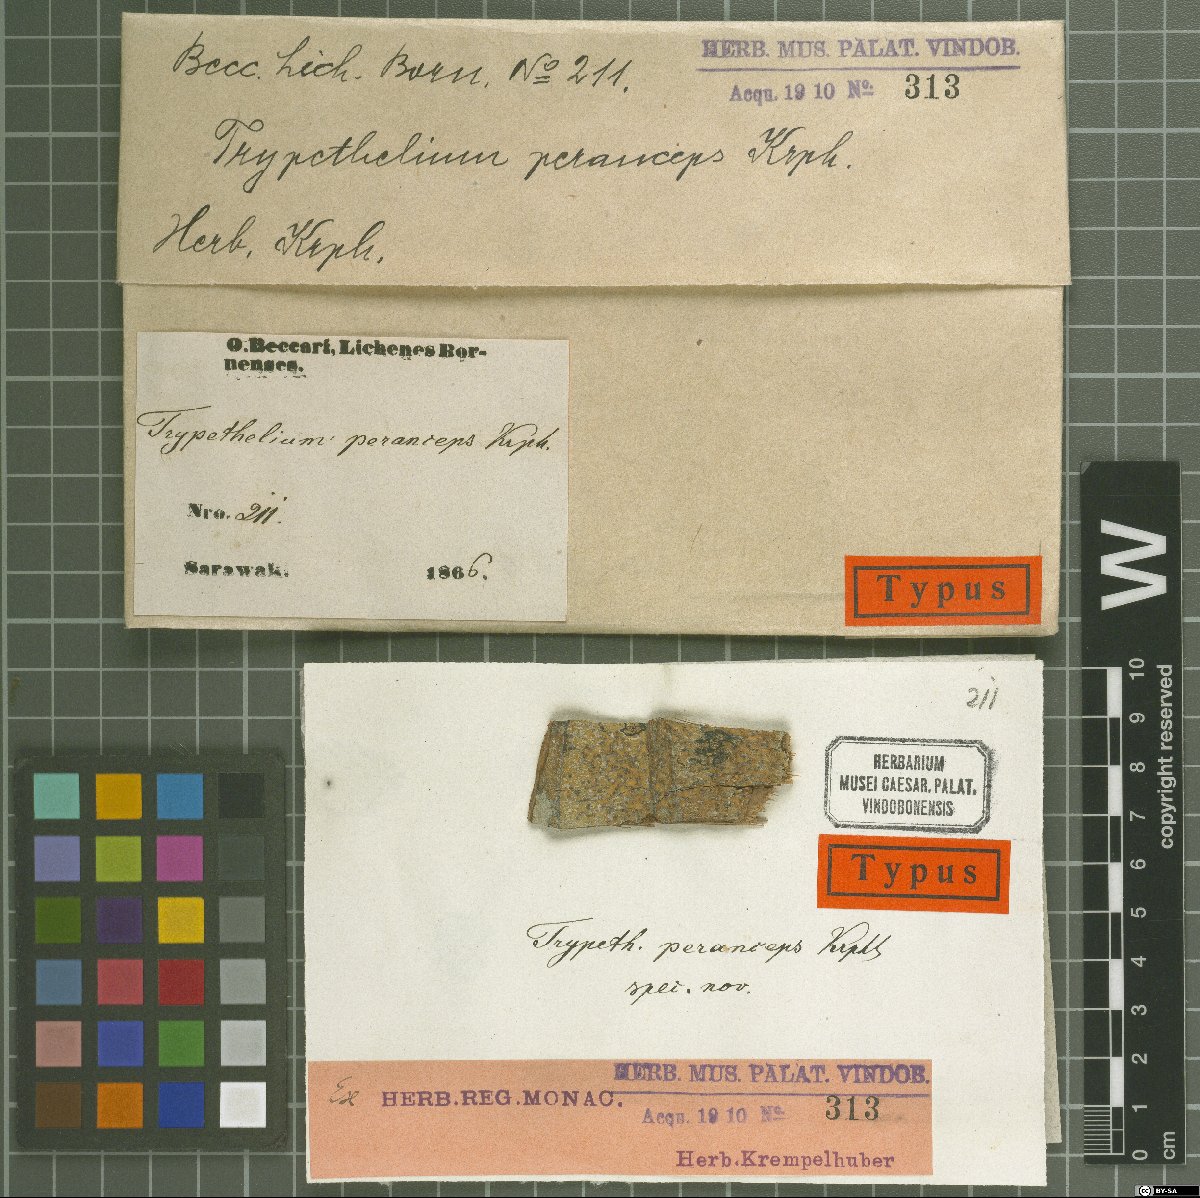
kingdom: Fungi
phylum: Ascomycota
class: Dothideomycetes
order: Trypetheliales
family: Trypetheliaceae
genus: Astrothelium
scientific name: Astrothelium peranceps
